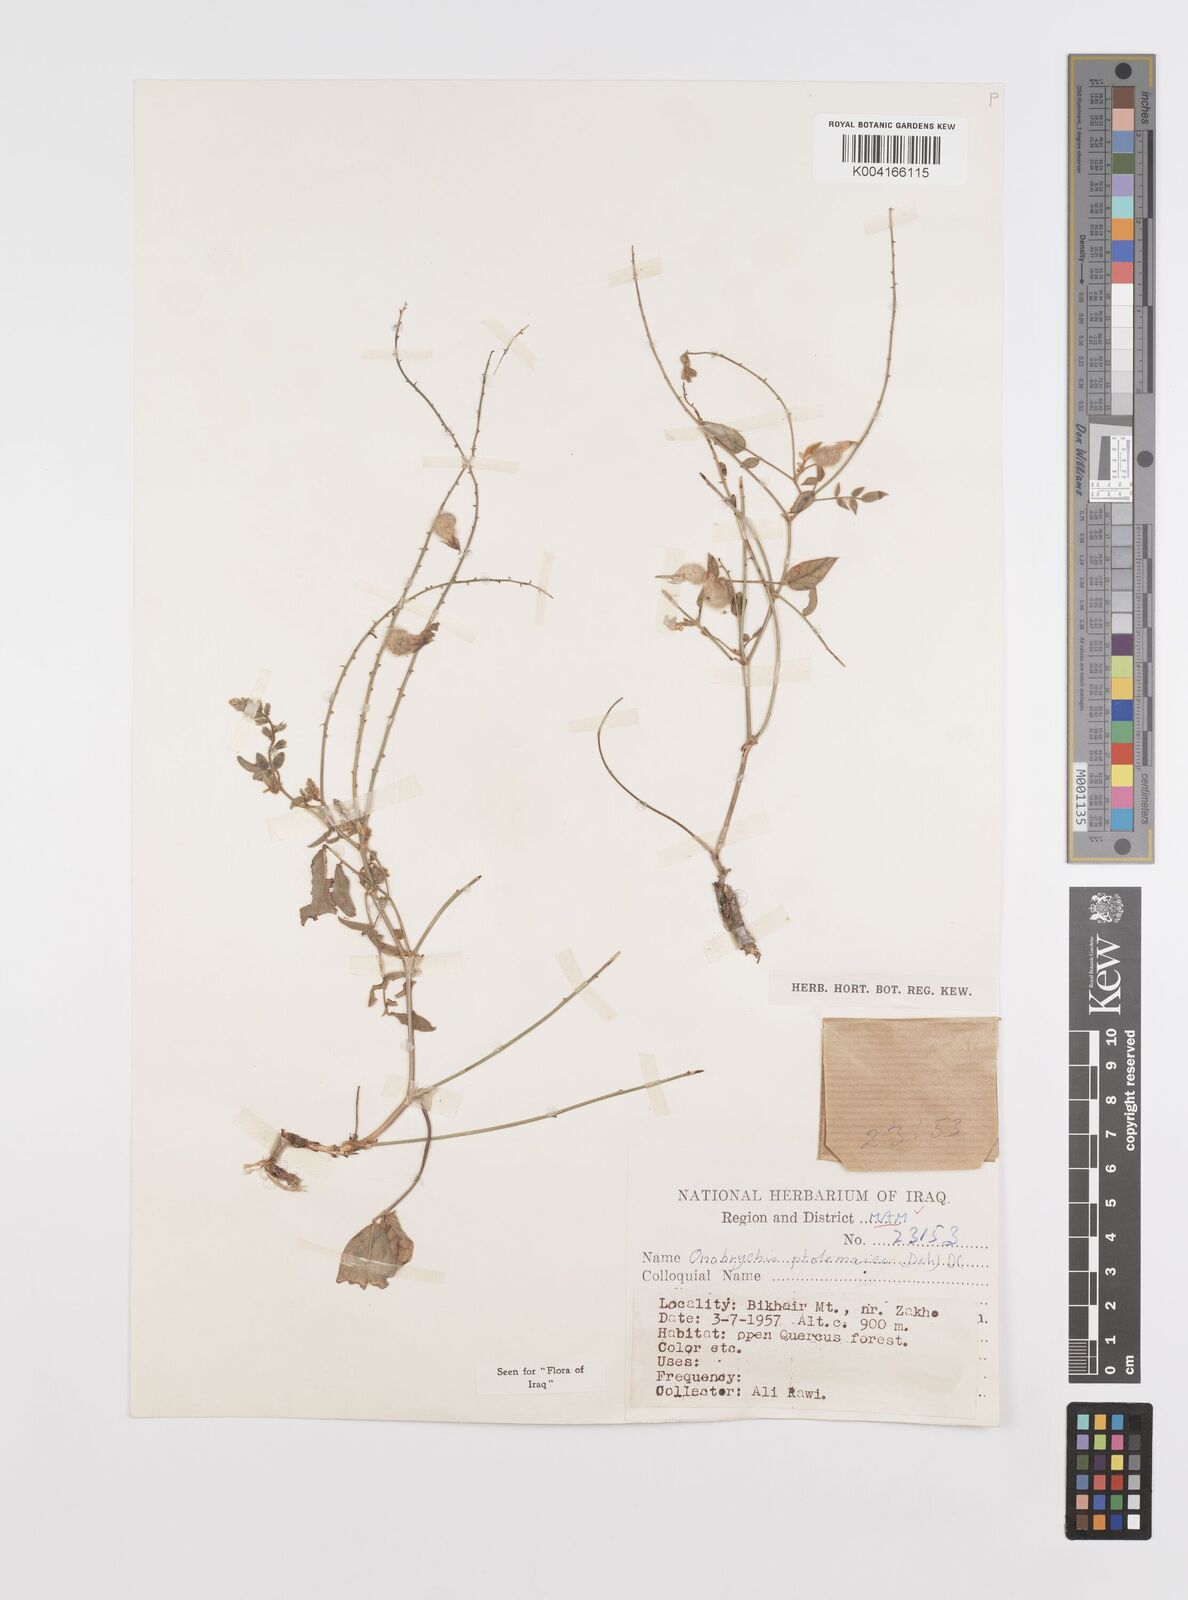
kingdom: Plantae
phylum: Tracheophyta
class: Magnoliopsida
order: Fabales
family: Fabaceae
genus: Onobrychis
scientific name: Onobrychis ptolemaica
